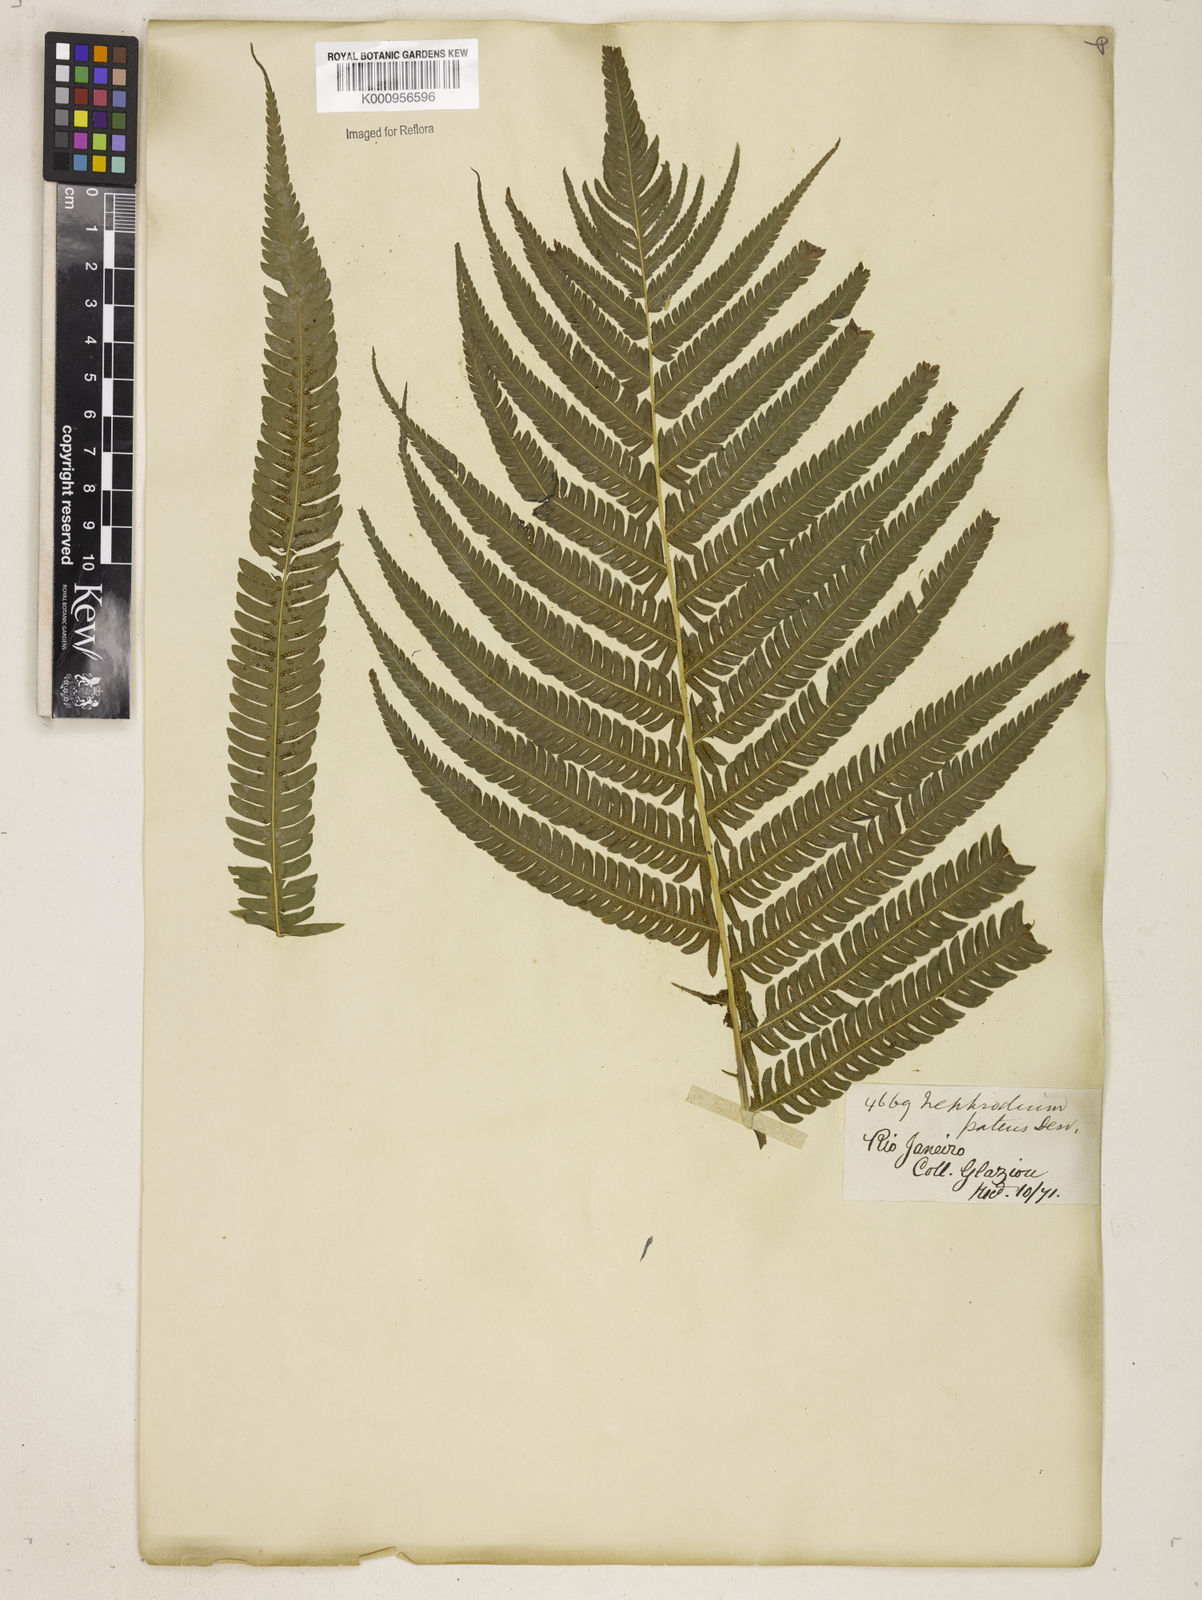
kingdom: Plantae
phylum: Tracheophyta
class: Polypodiopsida
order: Polypodiales
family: Thelypteridaceae
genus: Pelazoneuron
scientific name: Pelazoneuron patens
